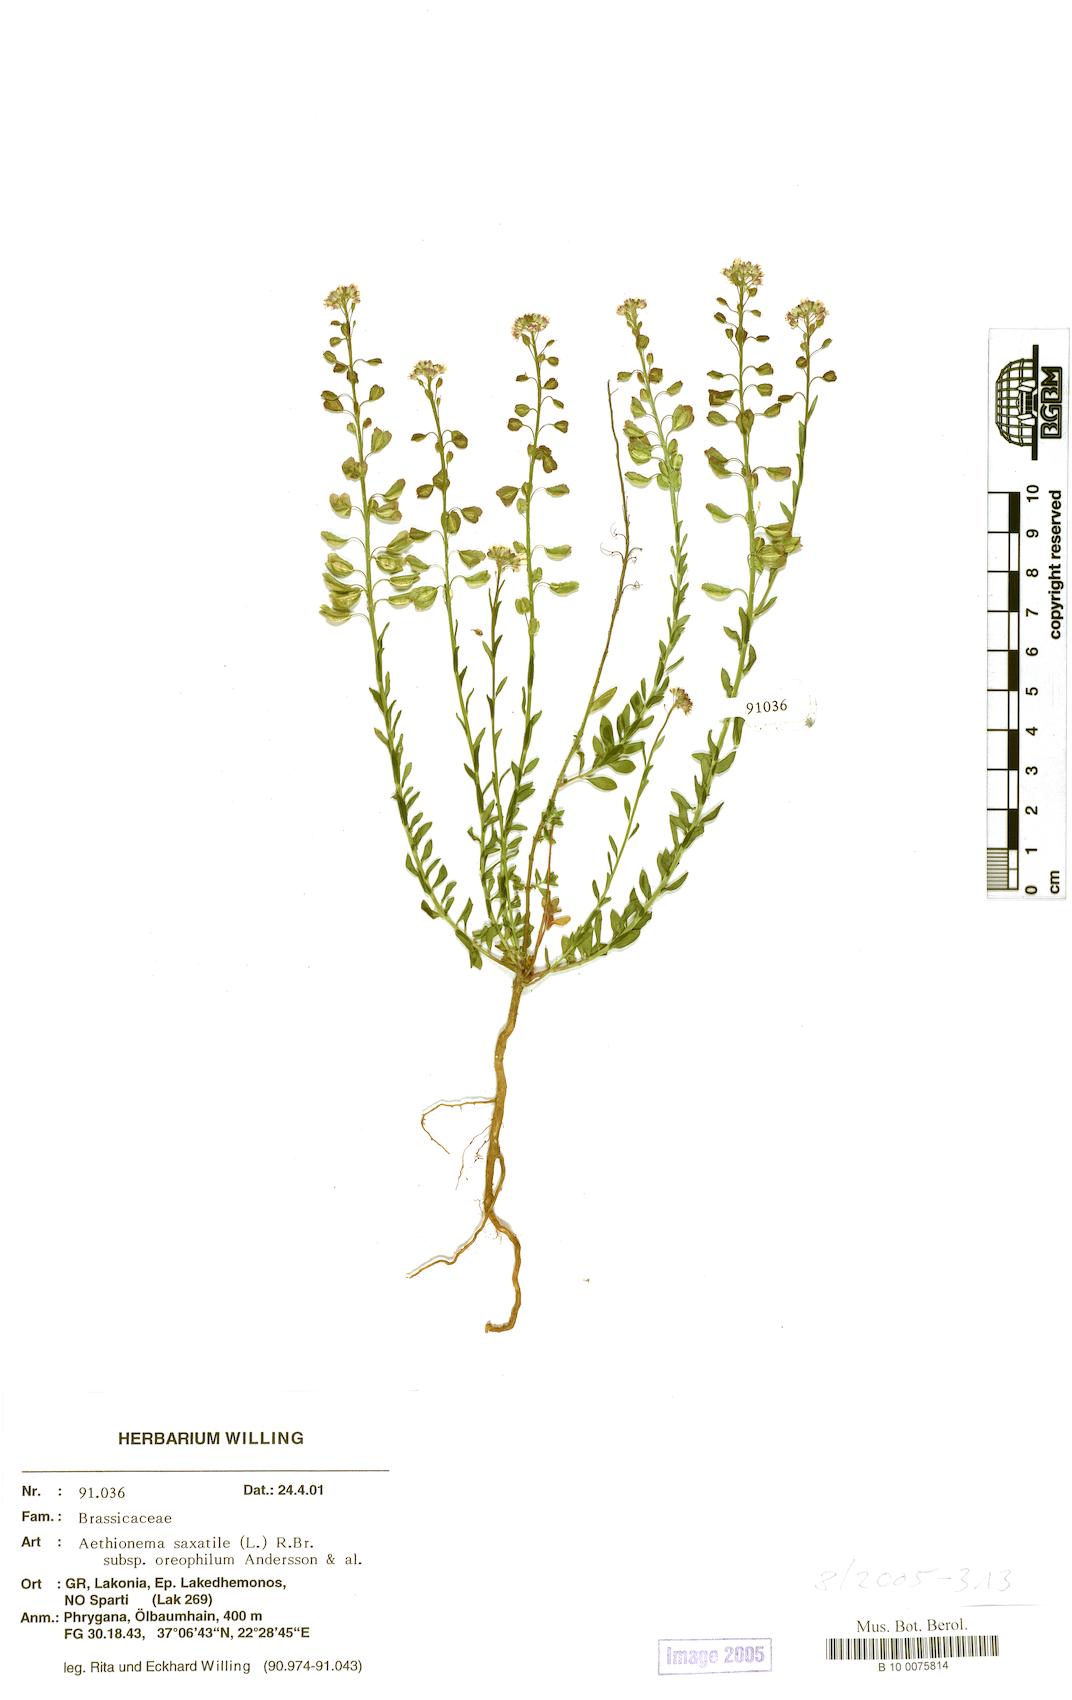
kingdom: Plantae
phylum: Tracheophyta
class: Magnoliopsida
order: Brassicales
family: Brassicaceae
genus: Aethionema
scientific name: Aethionema saxatile
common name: Burnt candytuft
